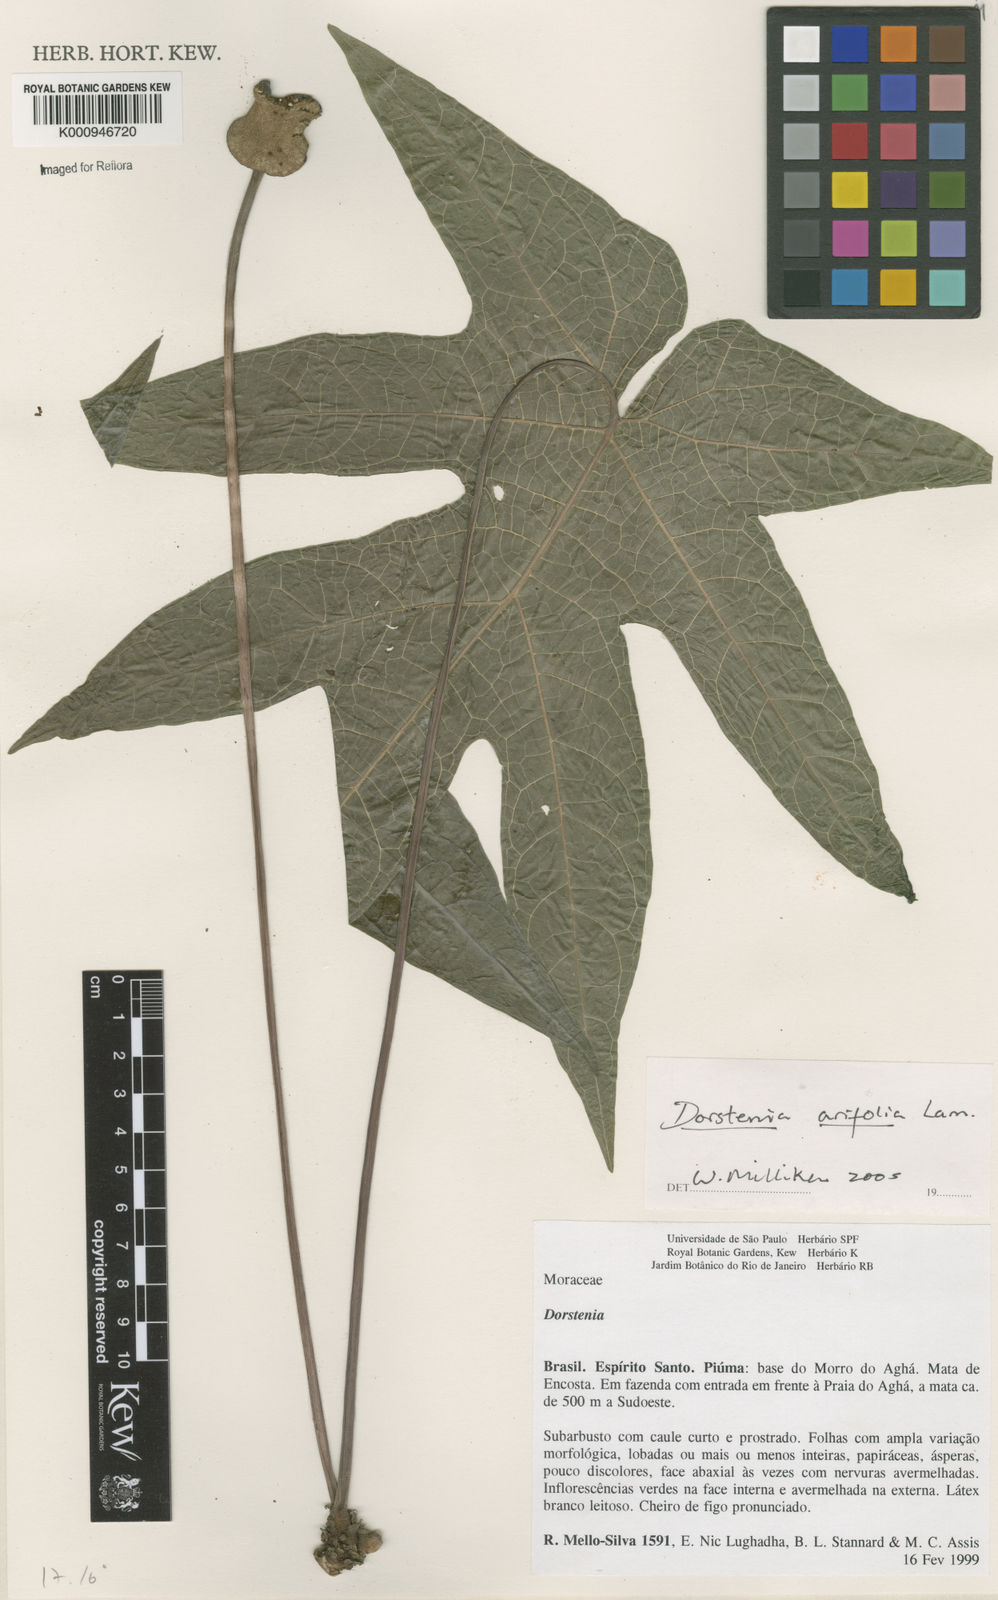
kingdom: Plantae
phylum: Tracheophyta
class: Magnoliopsida
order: Rosales
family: Moraceae
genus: Dorstenia
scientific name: Dorstenia arifolia
